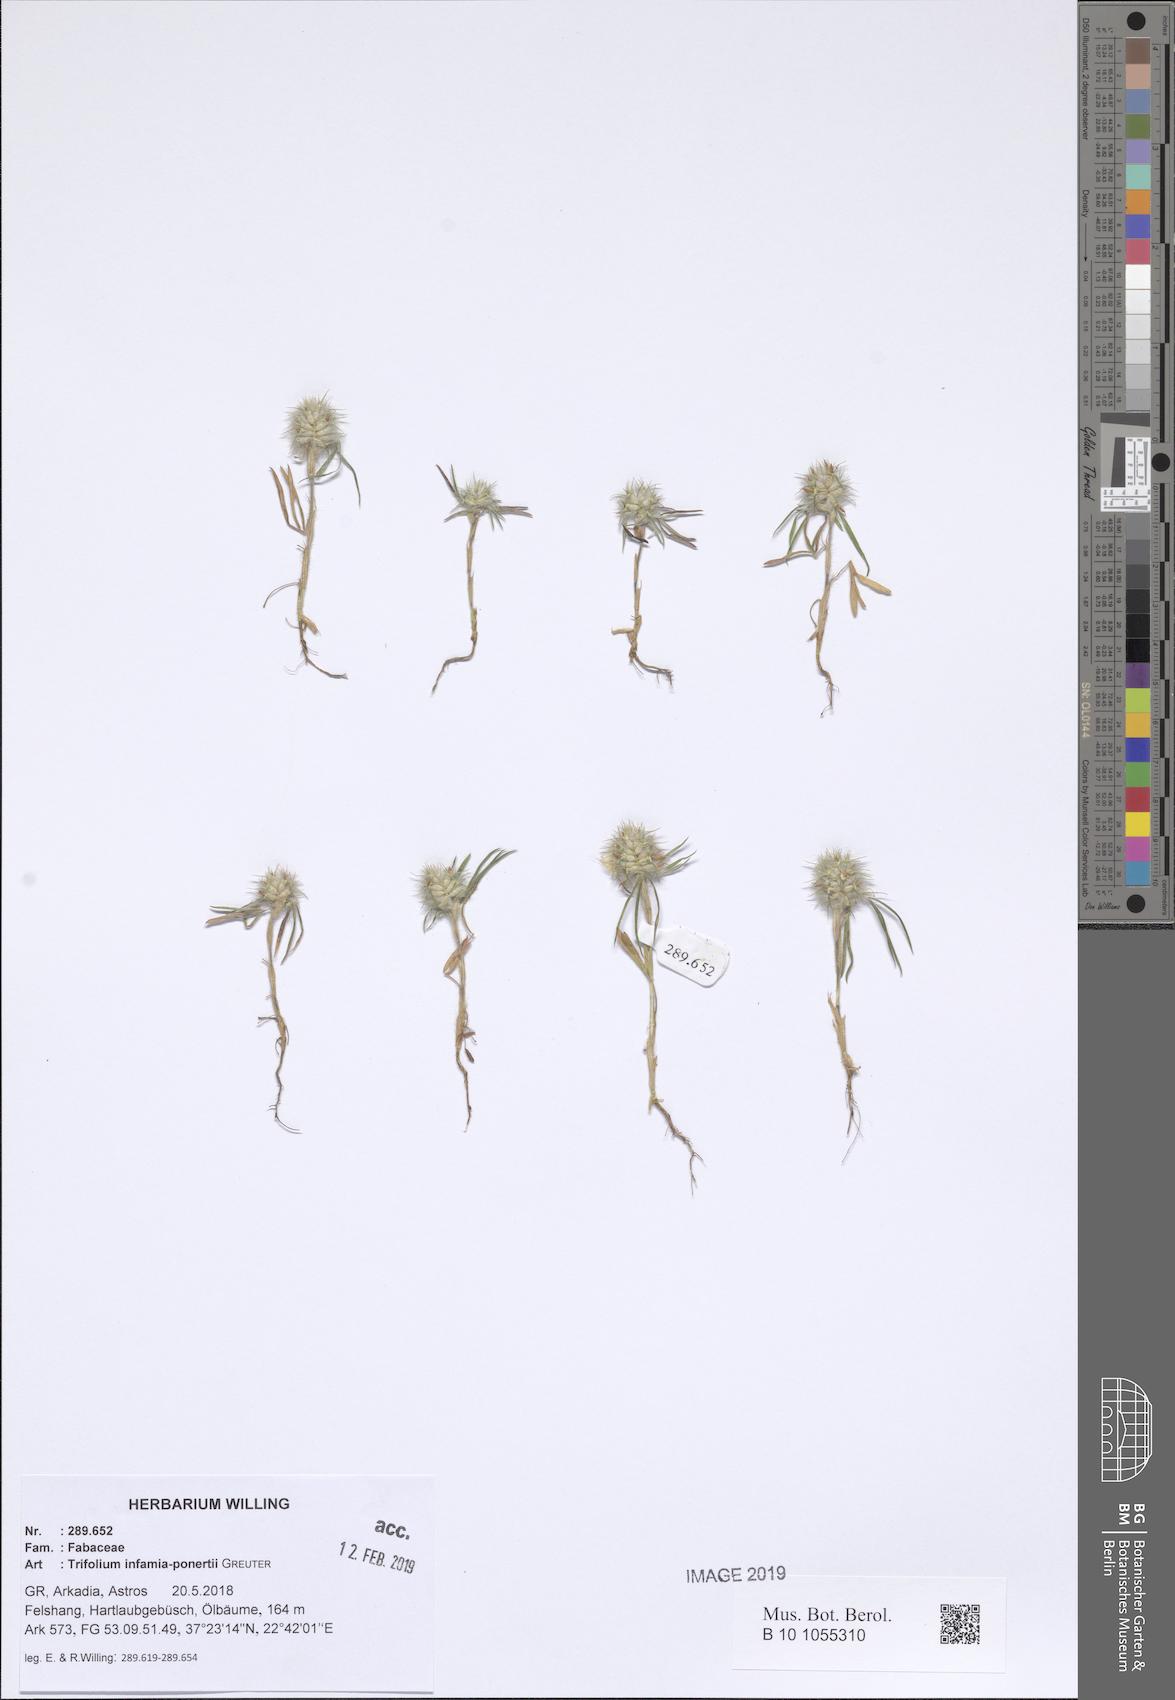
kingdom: Plantae
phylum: Tracheophyta
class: Magnoliopsida
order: Fabales
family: Fabaceae
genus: Trifolium
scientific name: Trifolium infamia-ponertii
